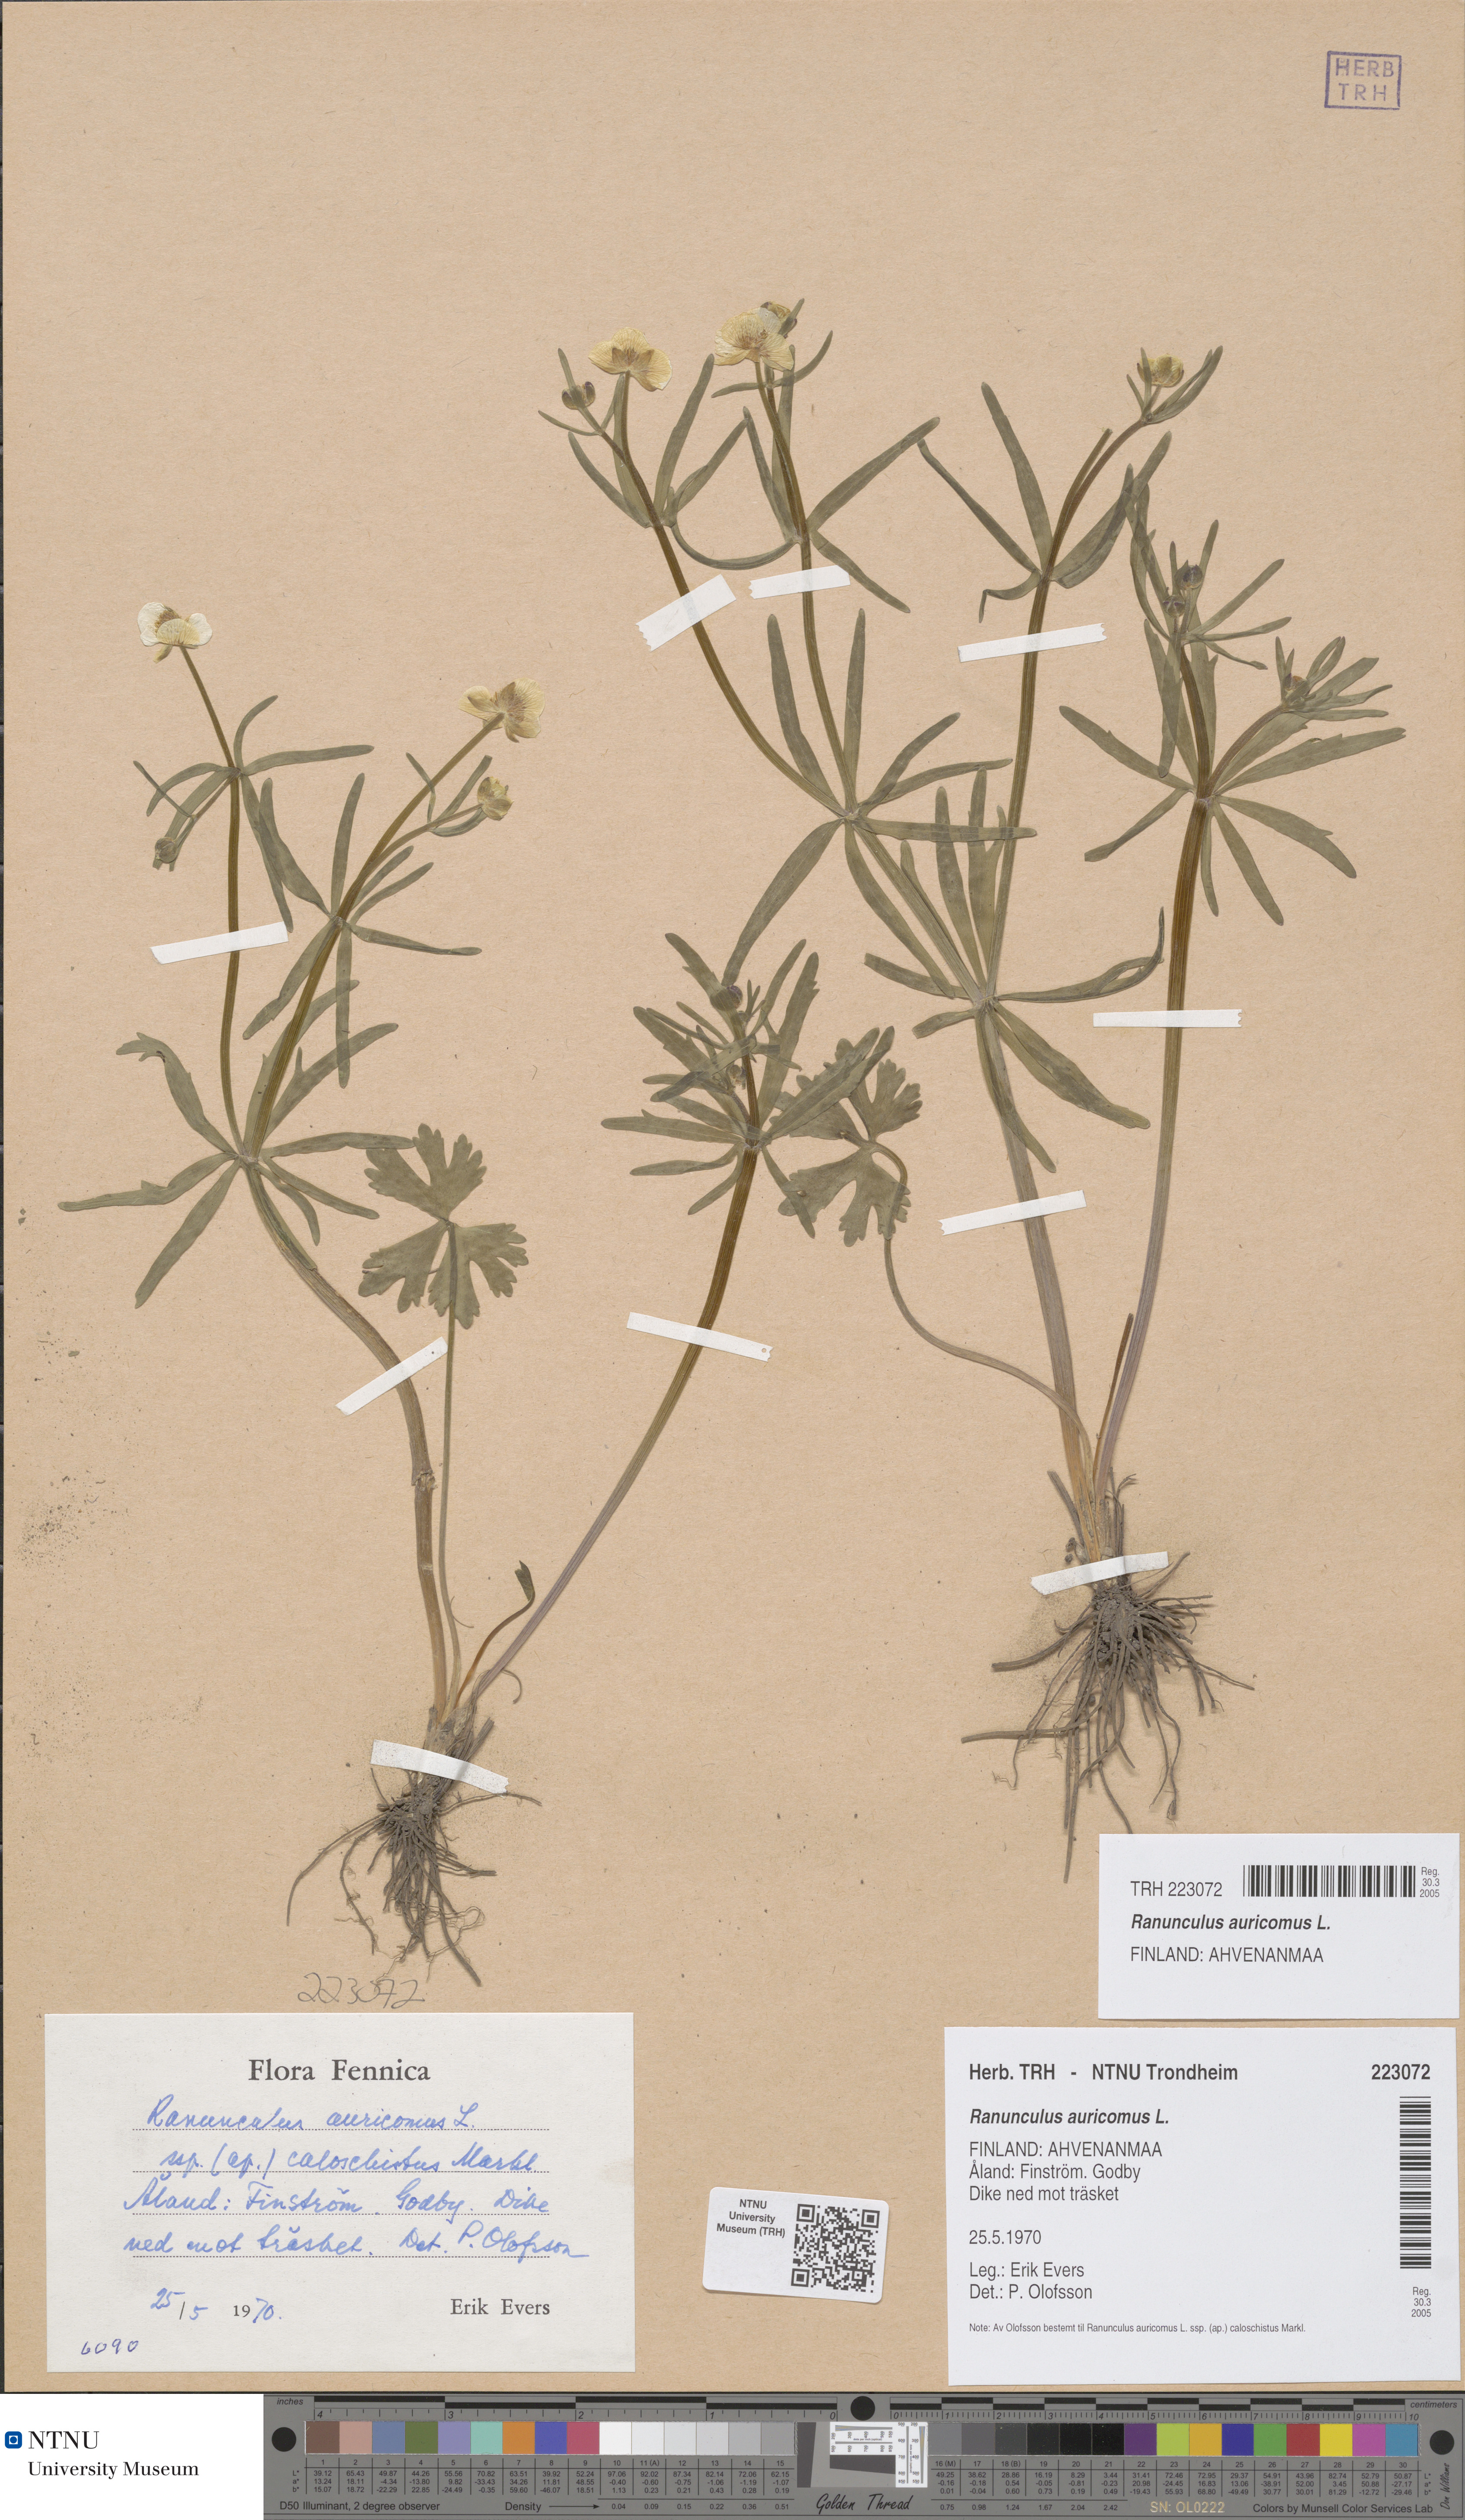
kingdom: Plantae
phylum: Tracheophyta
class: Magnoliopsida
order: Ranunculales
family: Ranunculaceae
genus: Ranunculus
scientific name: Ranunculus auricomus
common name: Goldilocks buttercup
